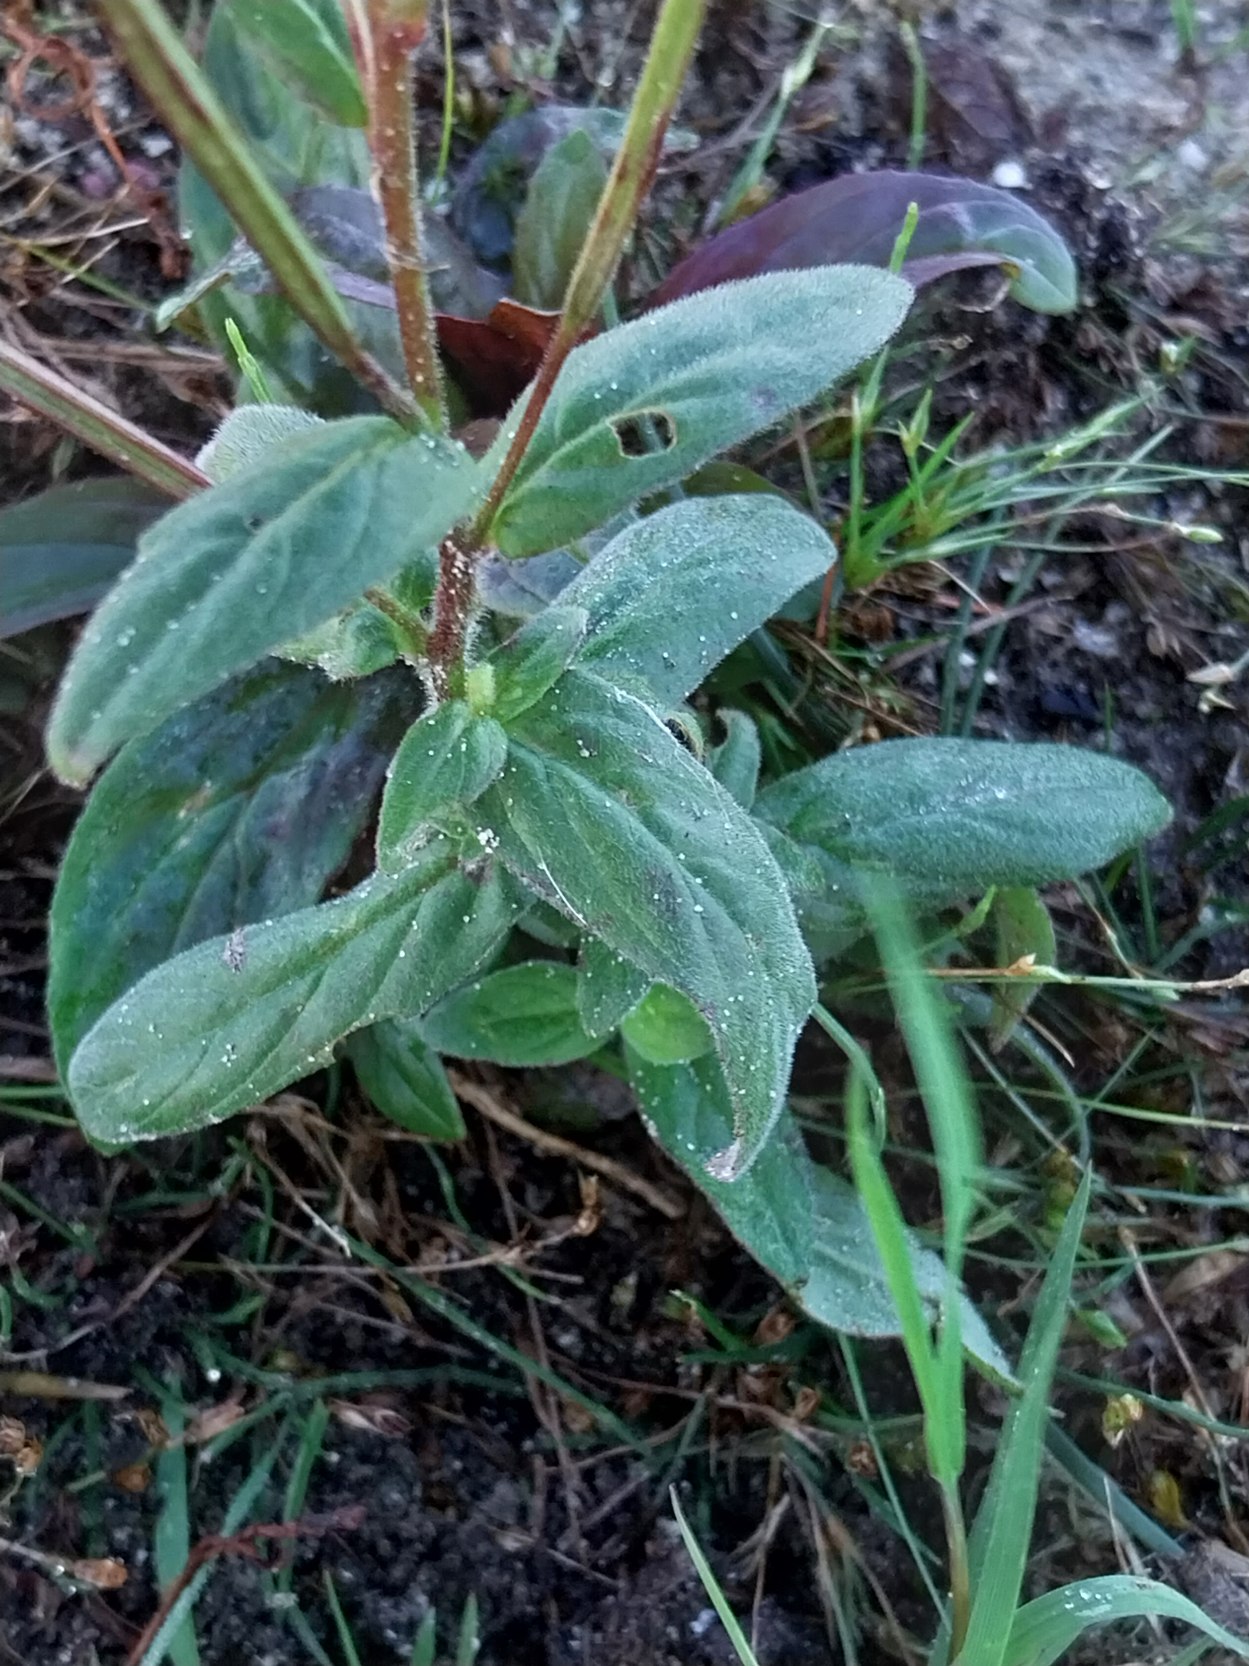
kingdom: Plantae
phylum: Tracheophyta
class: Magnoliopsida
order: Myrtales
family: Onagraceae
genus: Epilobium
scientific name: Epilobium parviflorum
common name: Dunet dueurt
